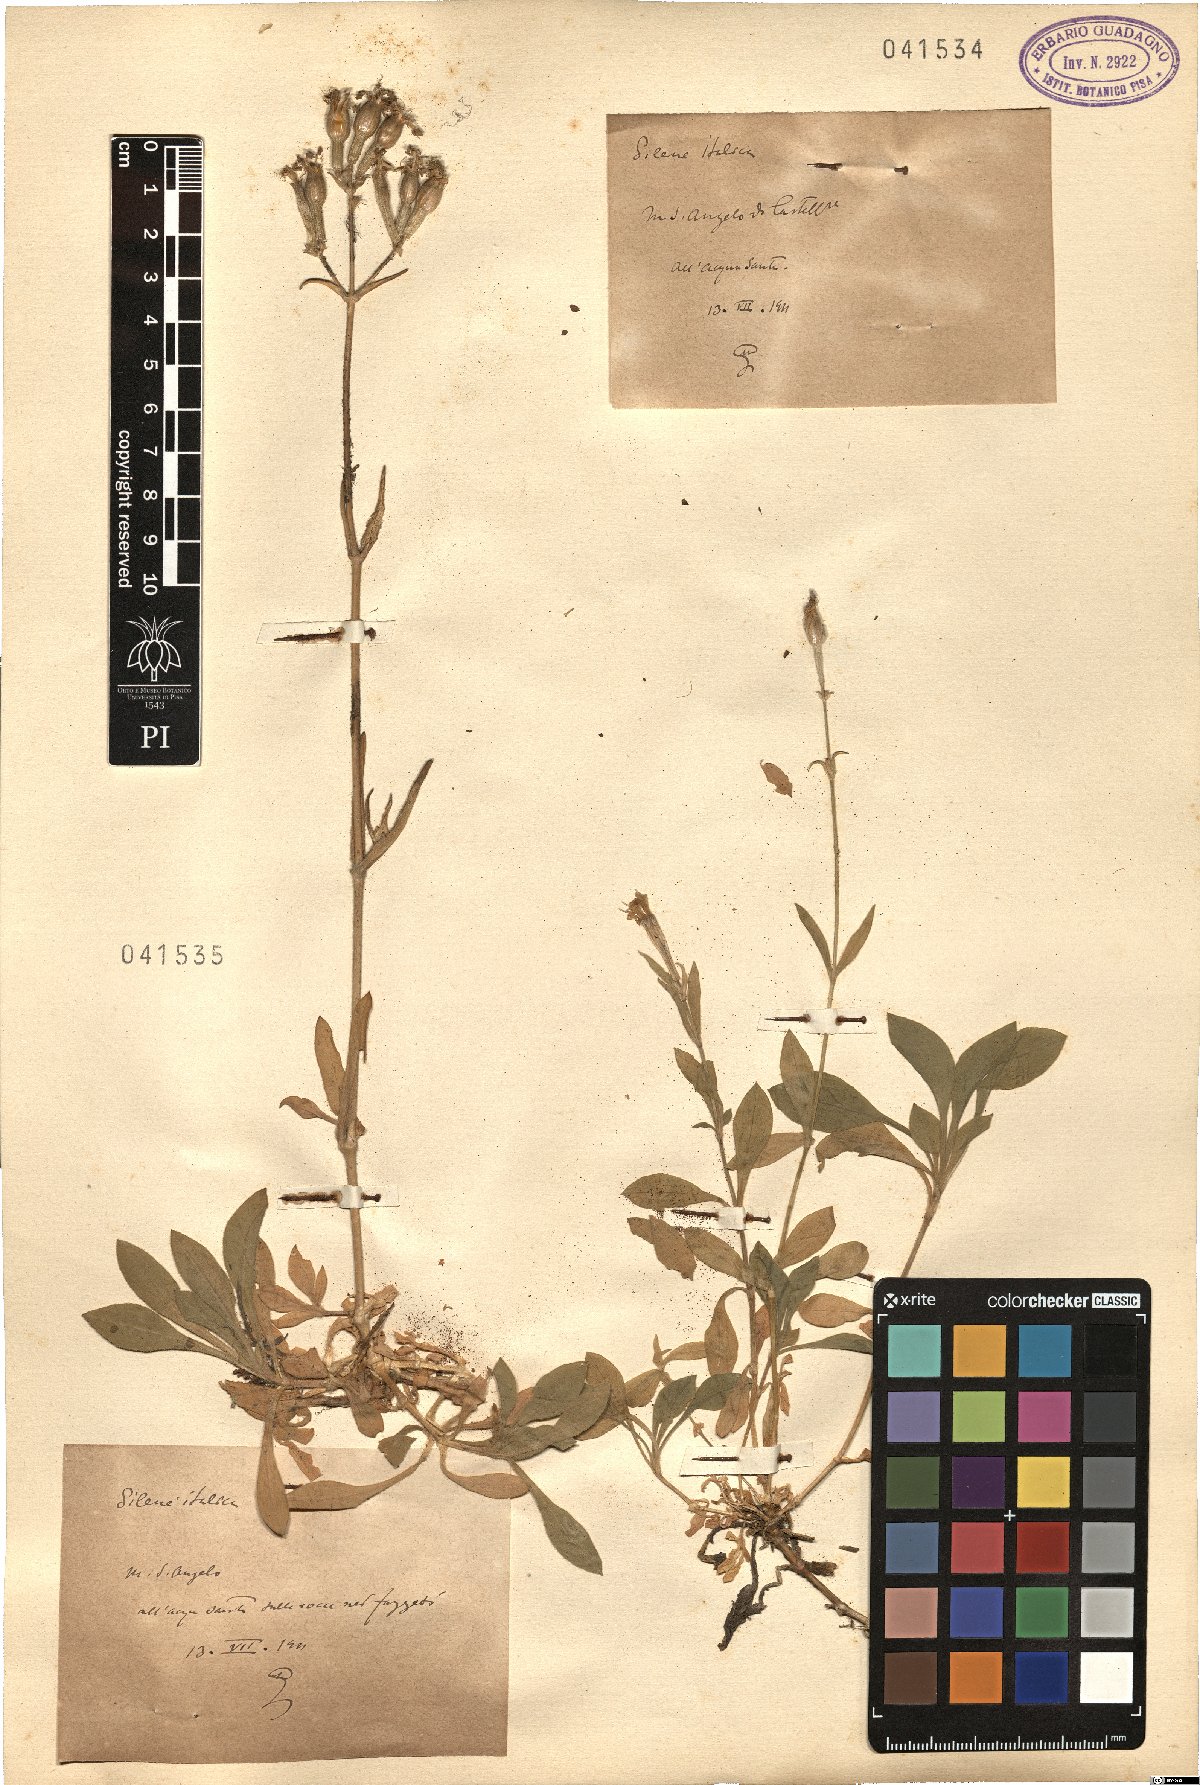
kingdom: Plantae
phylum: Tracheophyta
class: Magnoliopsida
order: Caryophyllales
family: Caryophyllaceae
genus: Silene
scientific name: Silene italica
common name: Italian catchfly
